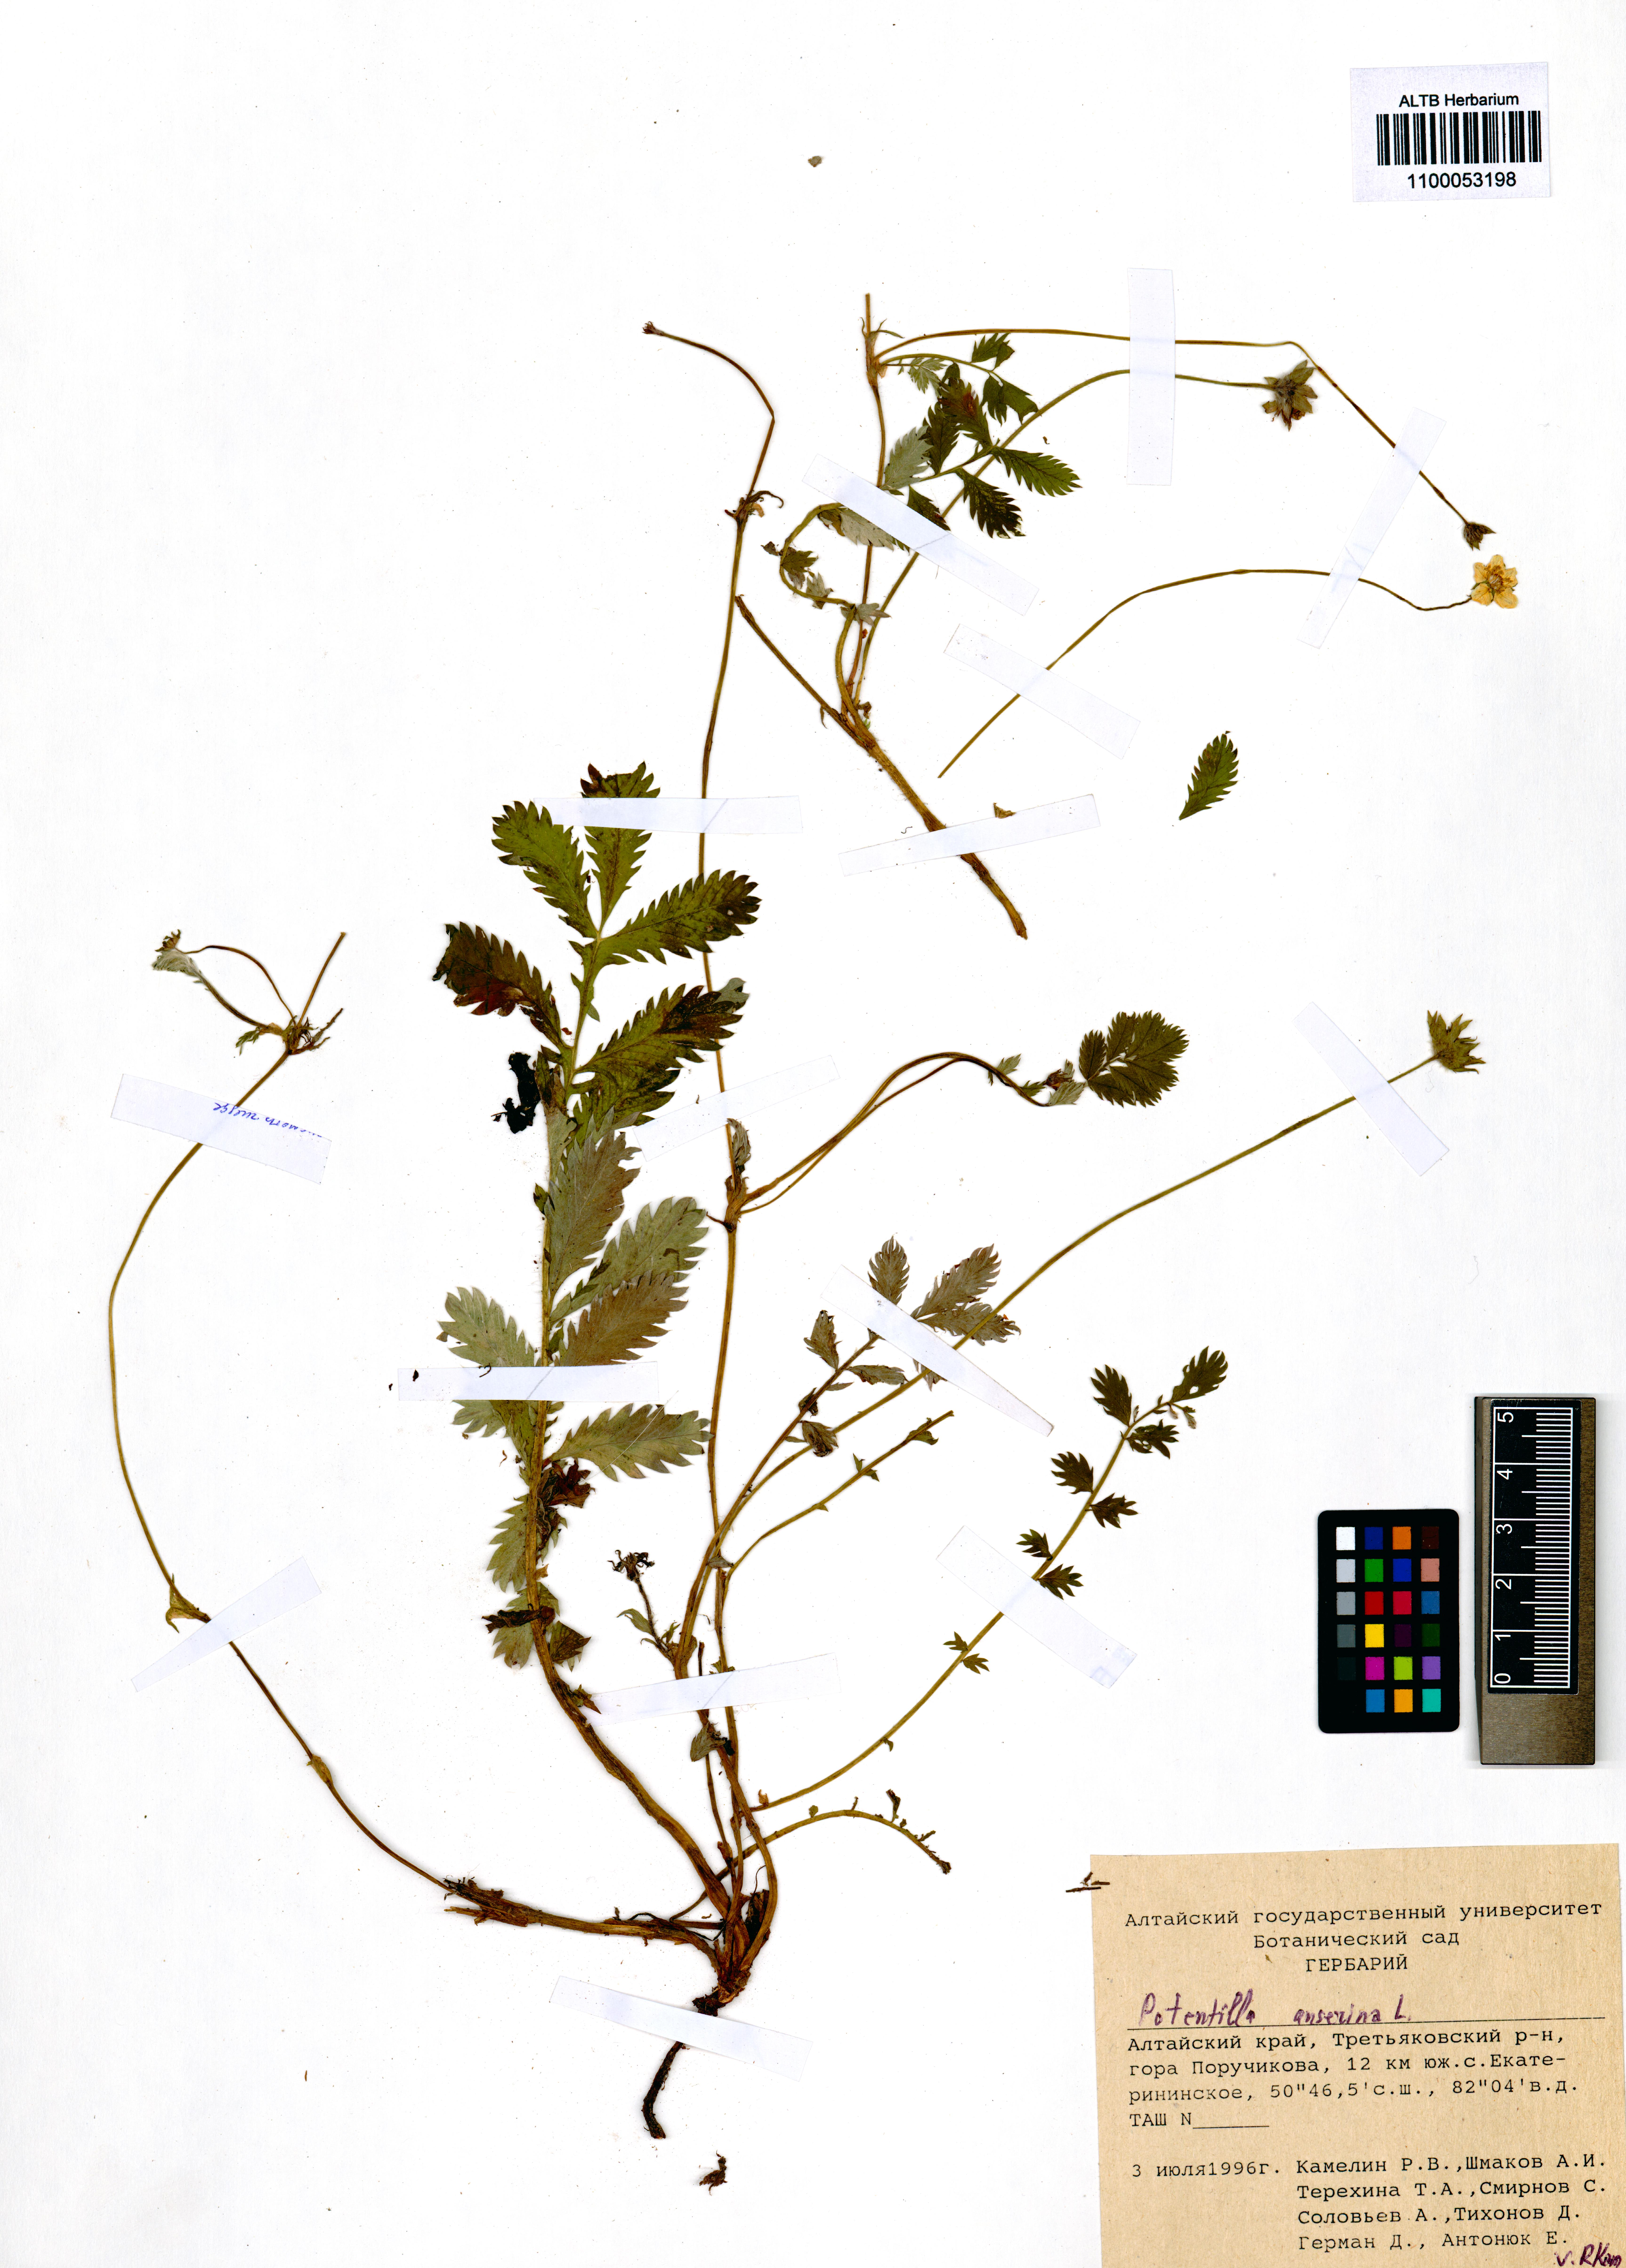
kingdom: Plantae
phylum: Tracheophyta
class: Magnoliopsida
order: Rosales
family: Rosaceae
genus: Argentina
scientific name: Argentina anserina
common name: Common silverweed
